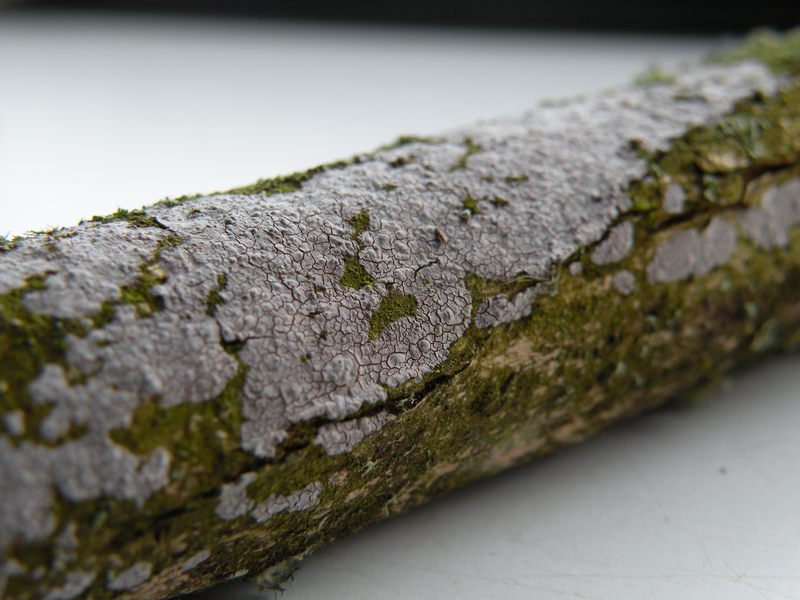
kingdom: Fungi
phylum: Basidiomycota
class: Agaricomycetes
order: Russulales
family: Peniophoraceae
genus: Peniophora
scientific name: Peniophora lycii
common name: grynet voksskind
